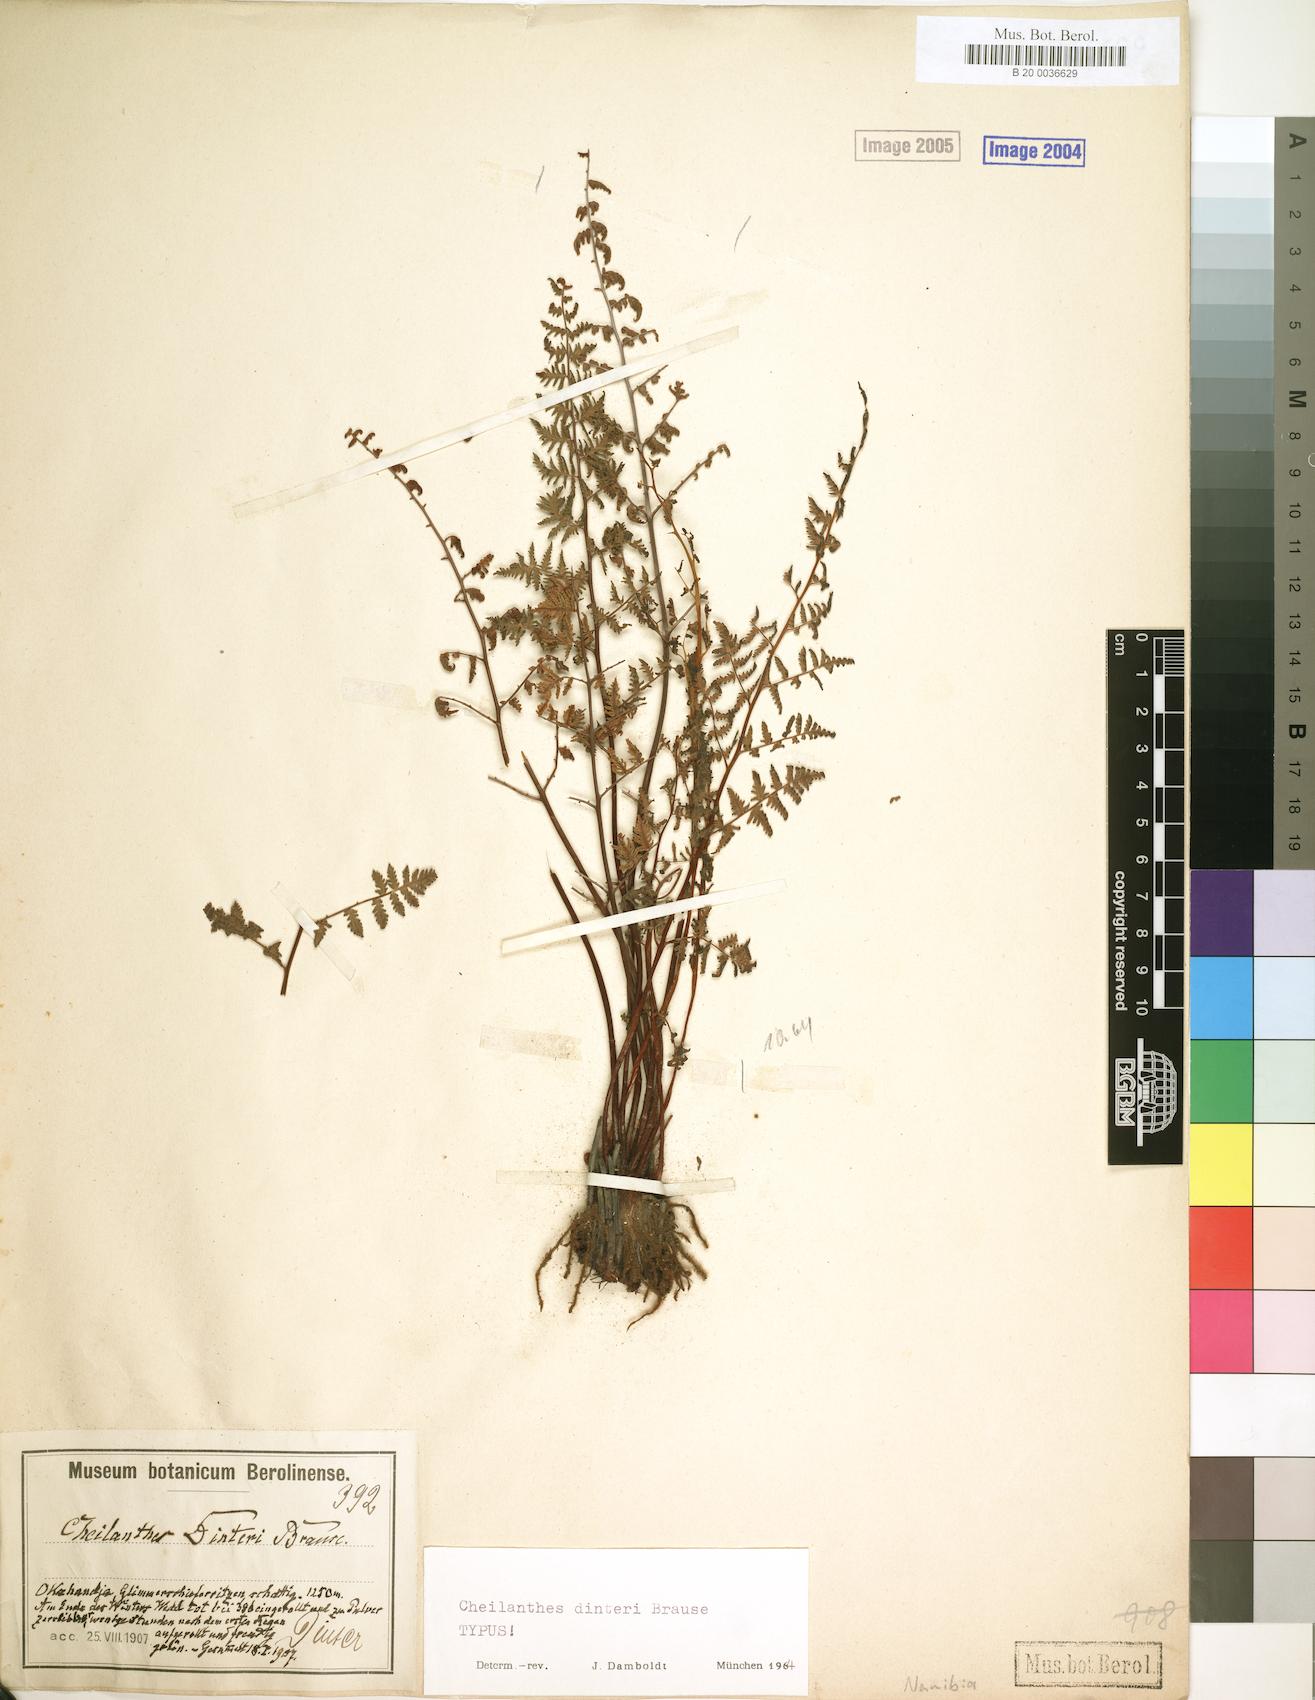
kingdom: Plantae
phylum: Tracheophyta
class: Polypodiopsida
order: Polypodiales
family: Pteridaceae
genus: Cheilanthes
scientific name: Cheilanthes dinteri
